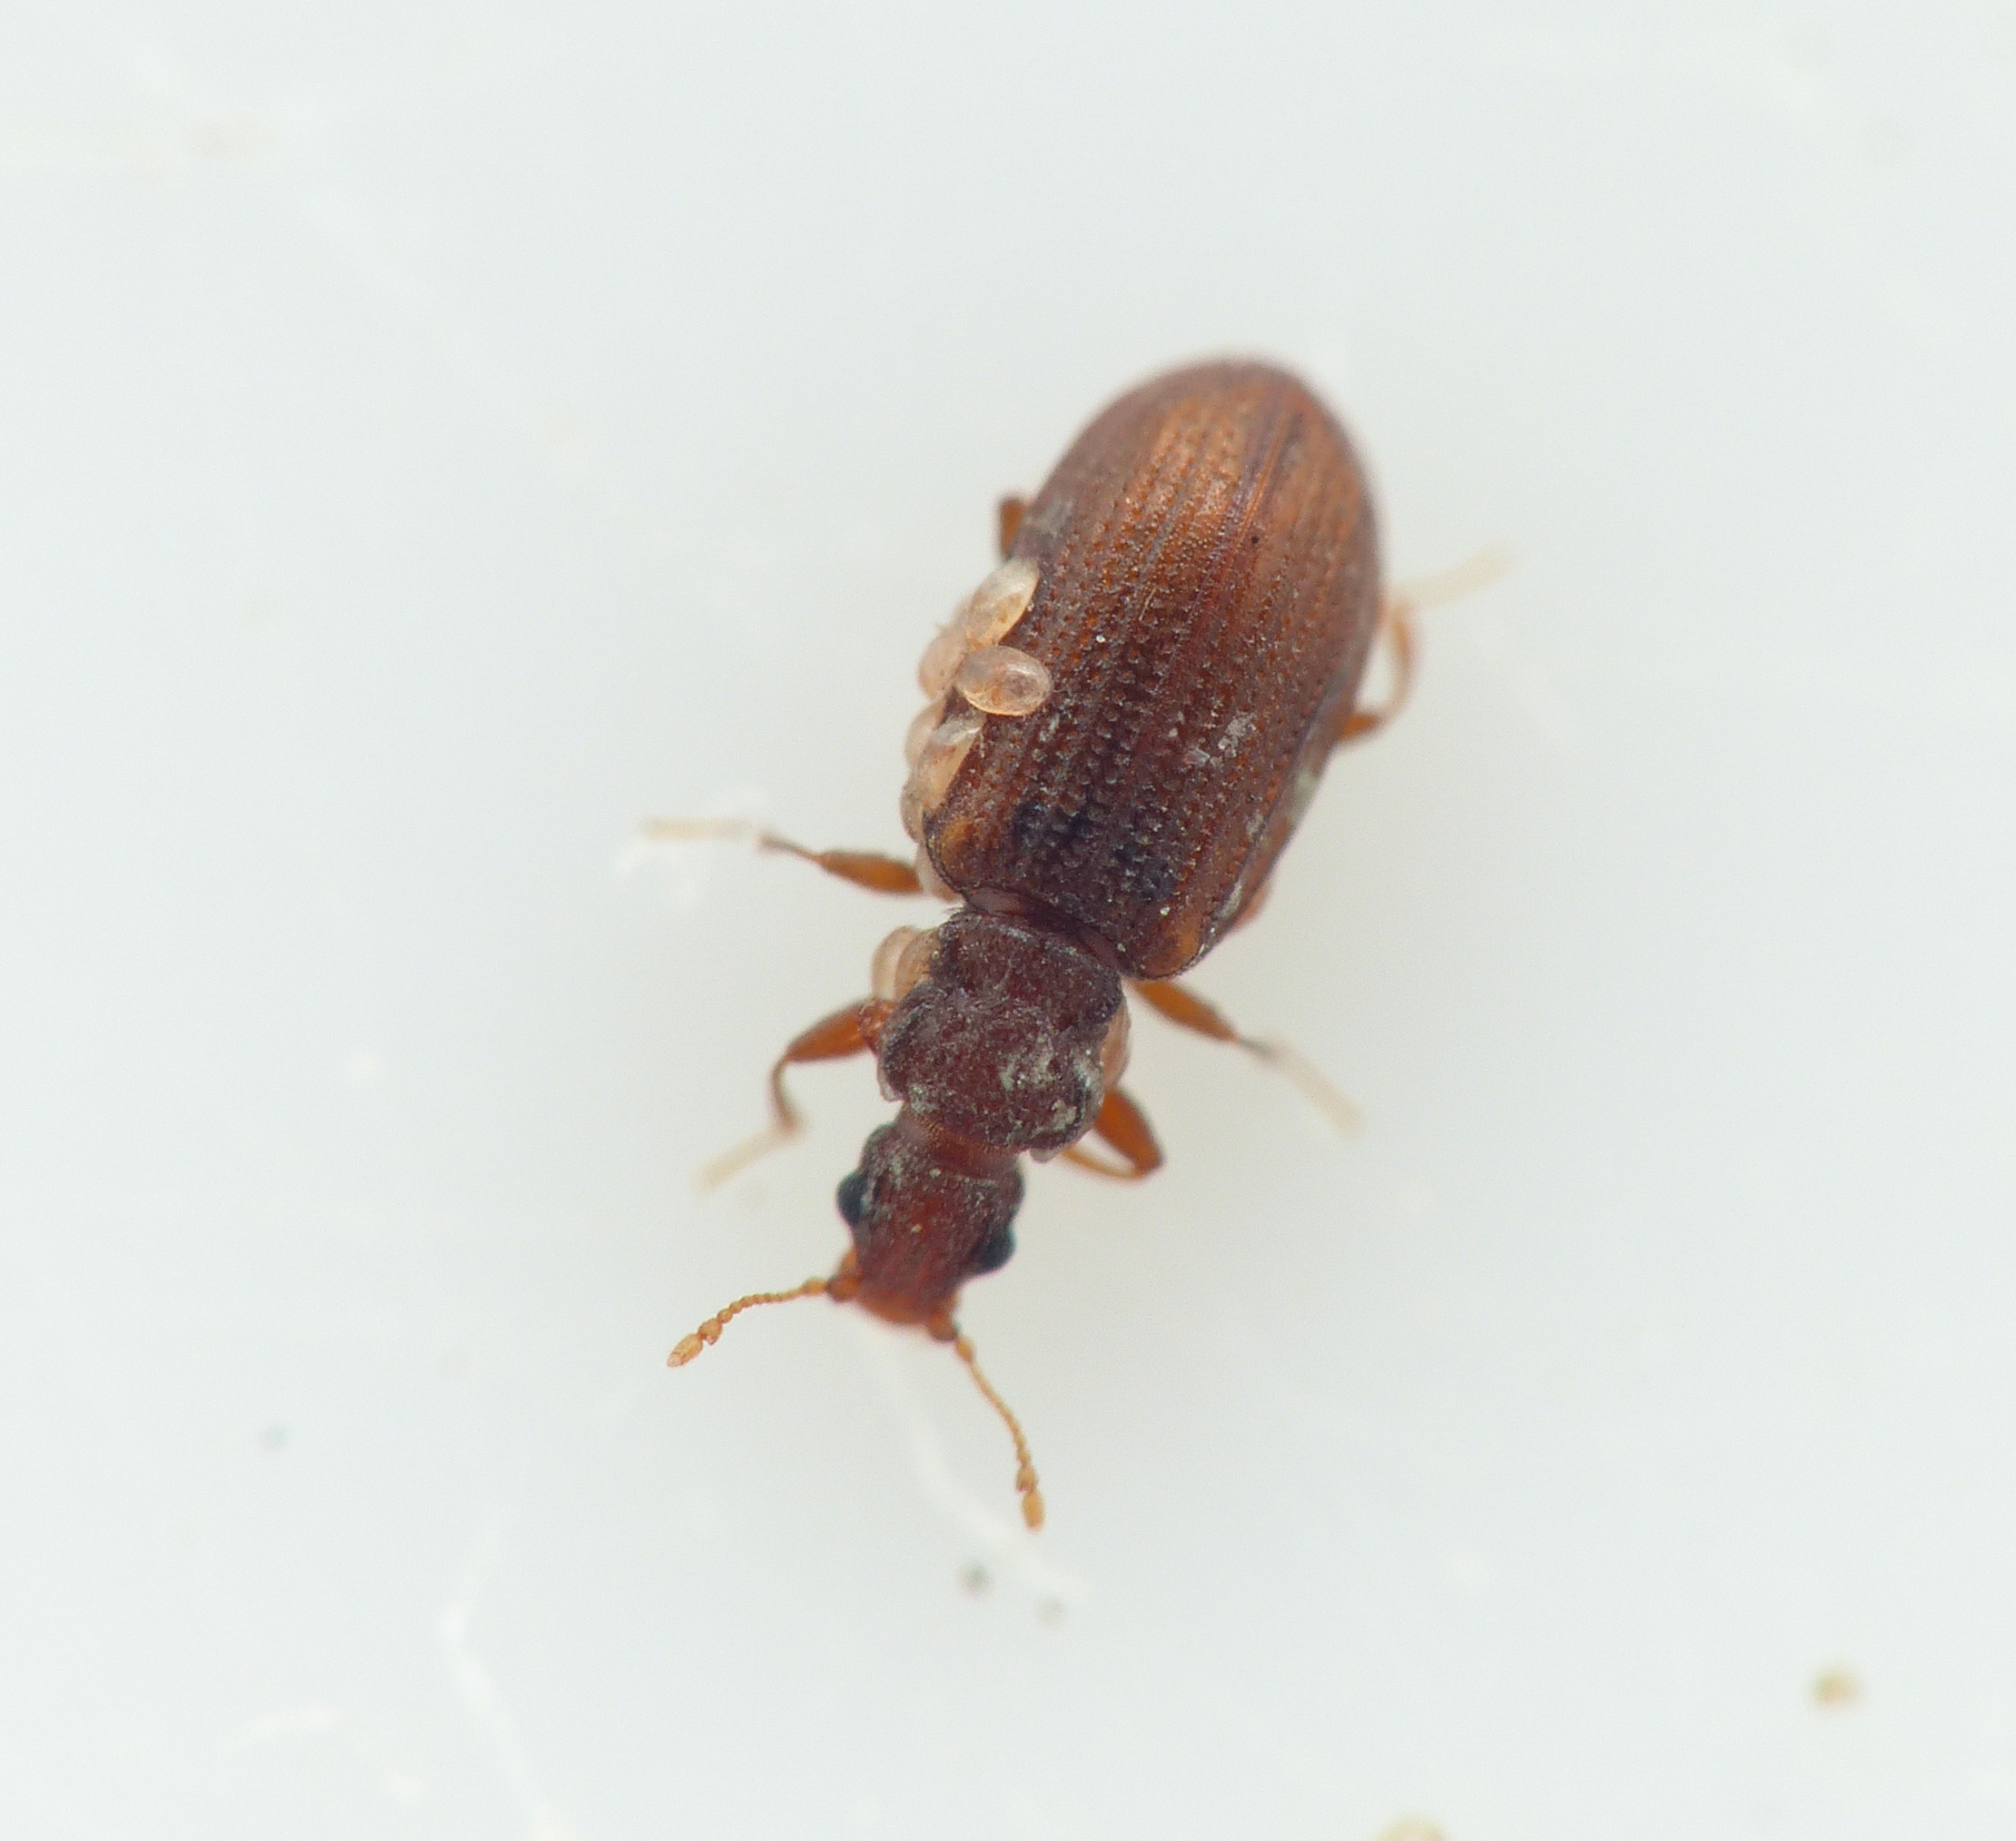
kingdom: Animalia
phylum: Arthropoda
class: Insecta
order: Coleoptera
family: Latridiidae
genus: Cartodere
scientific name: Cartodere constricta
